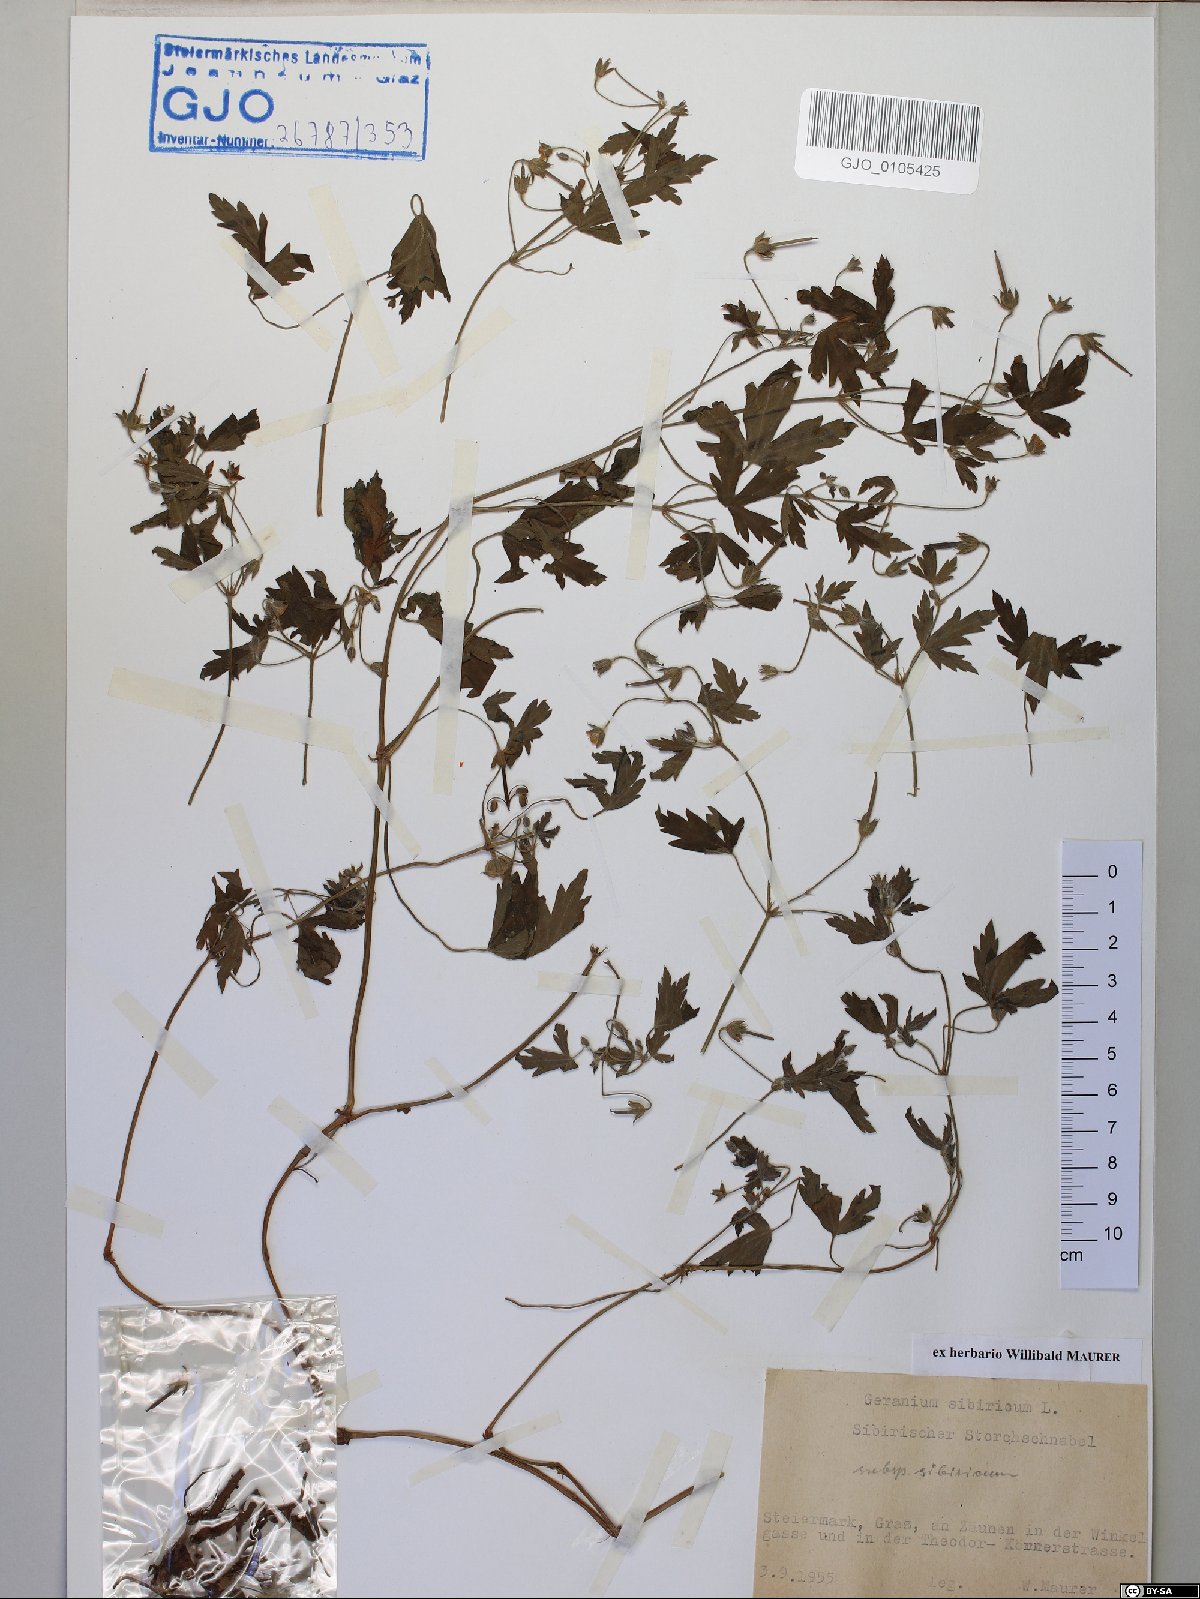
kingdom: Plantae
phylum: Tracheophyta
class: Magnoliopsida
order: Geraniales
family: Geraniaceae
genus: Geranium
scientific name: Geranium sibiricum
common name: Siberian crane's-bill
